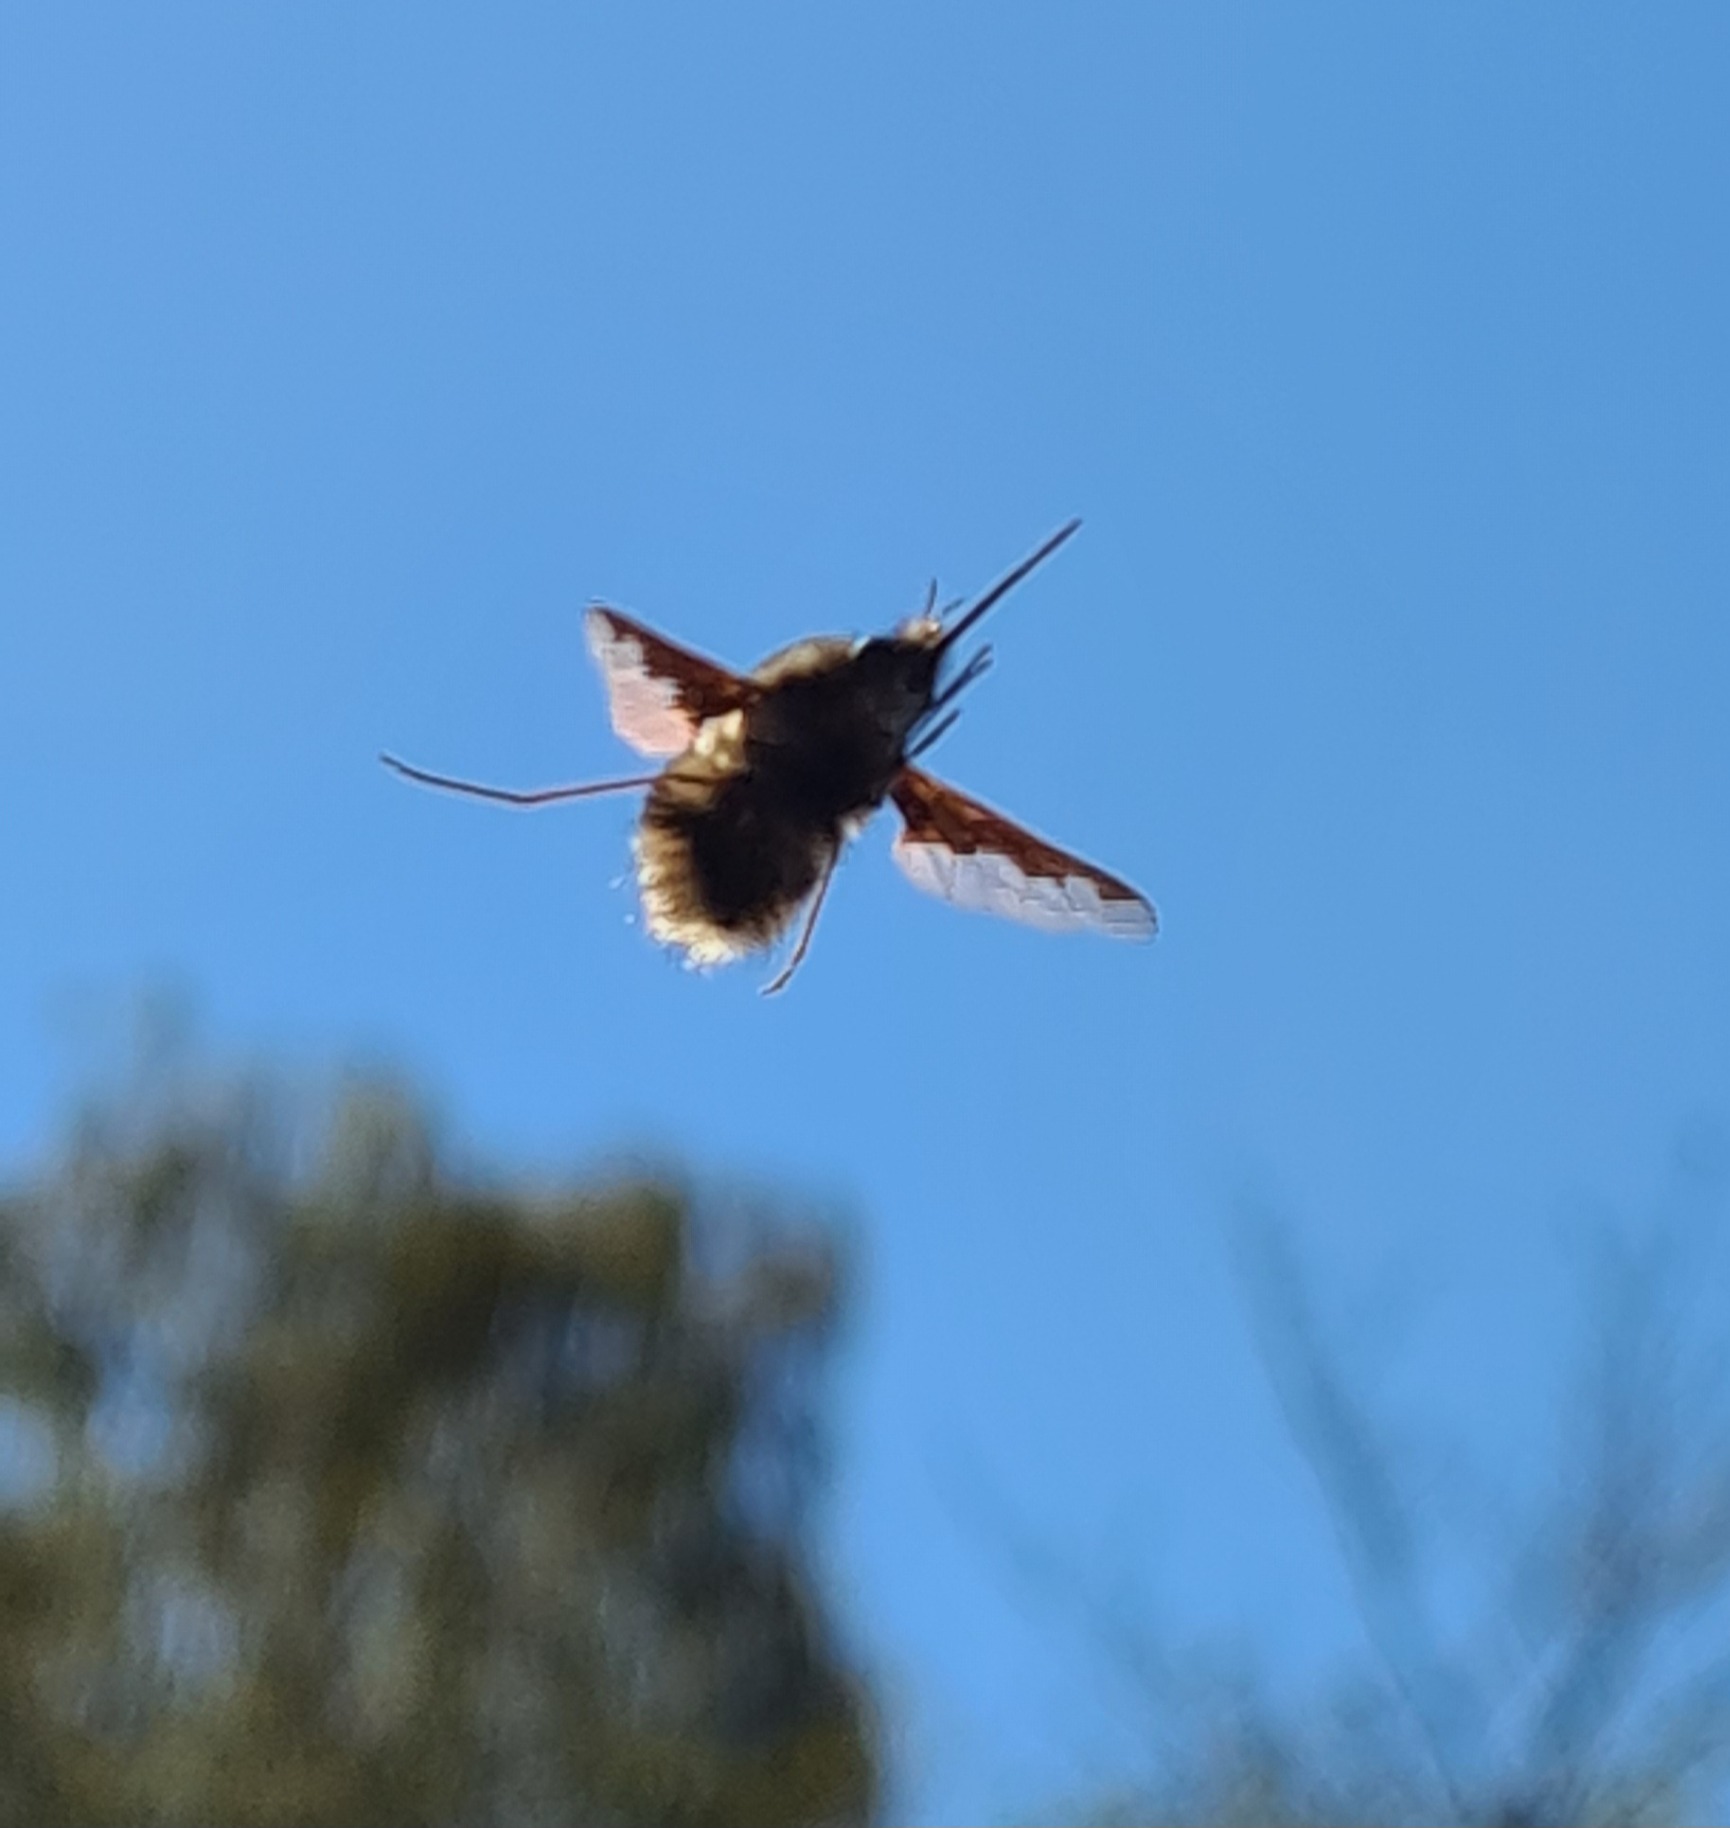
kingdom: Animalia
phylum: Arthropoda
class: Insecta
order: Diptera
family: Bombyliidae
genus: Bombylius
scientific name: Bombylius major
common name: Stor humleflue
